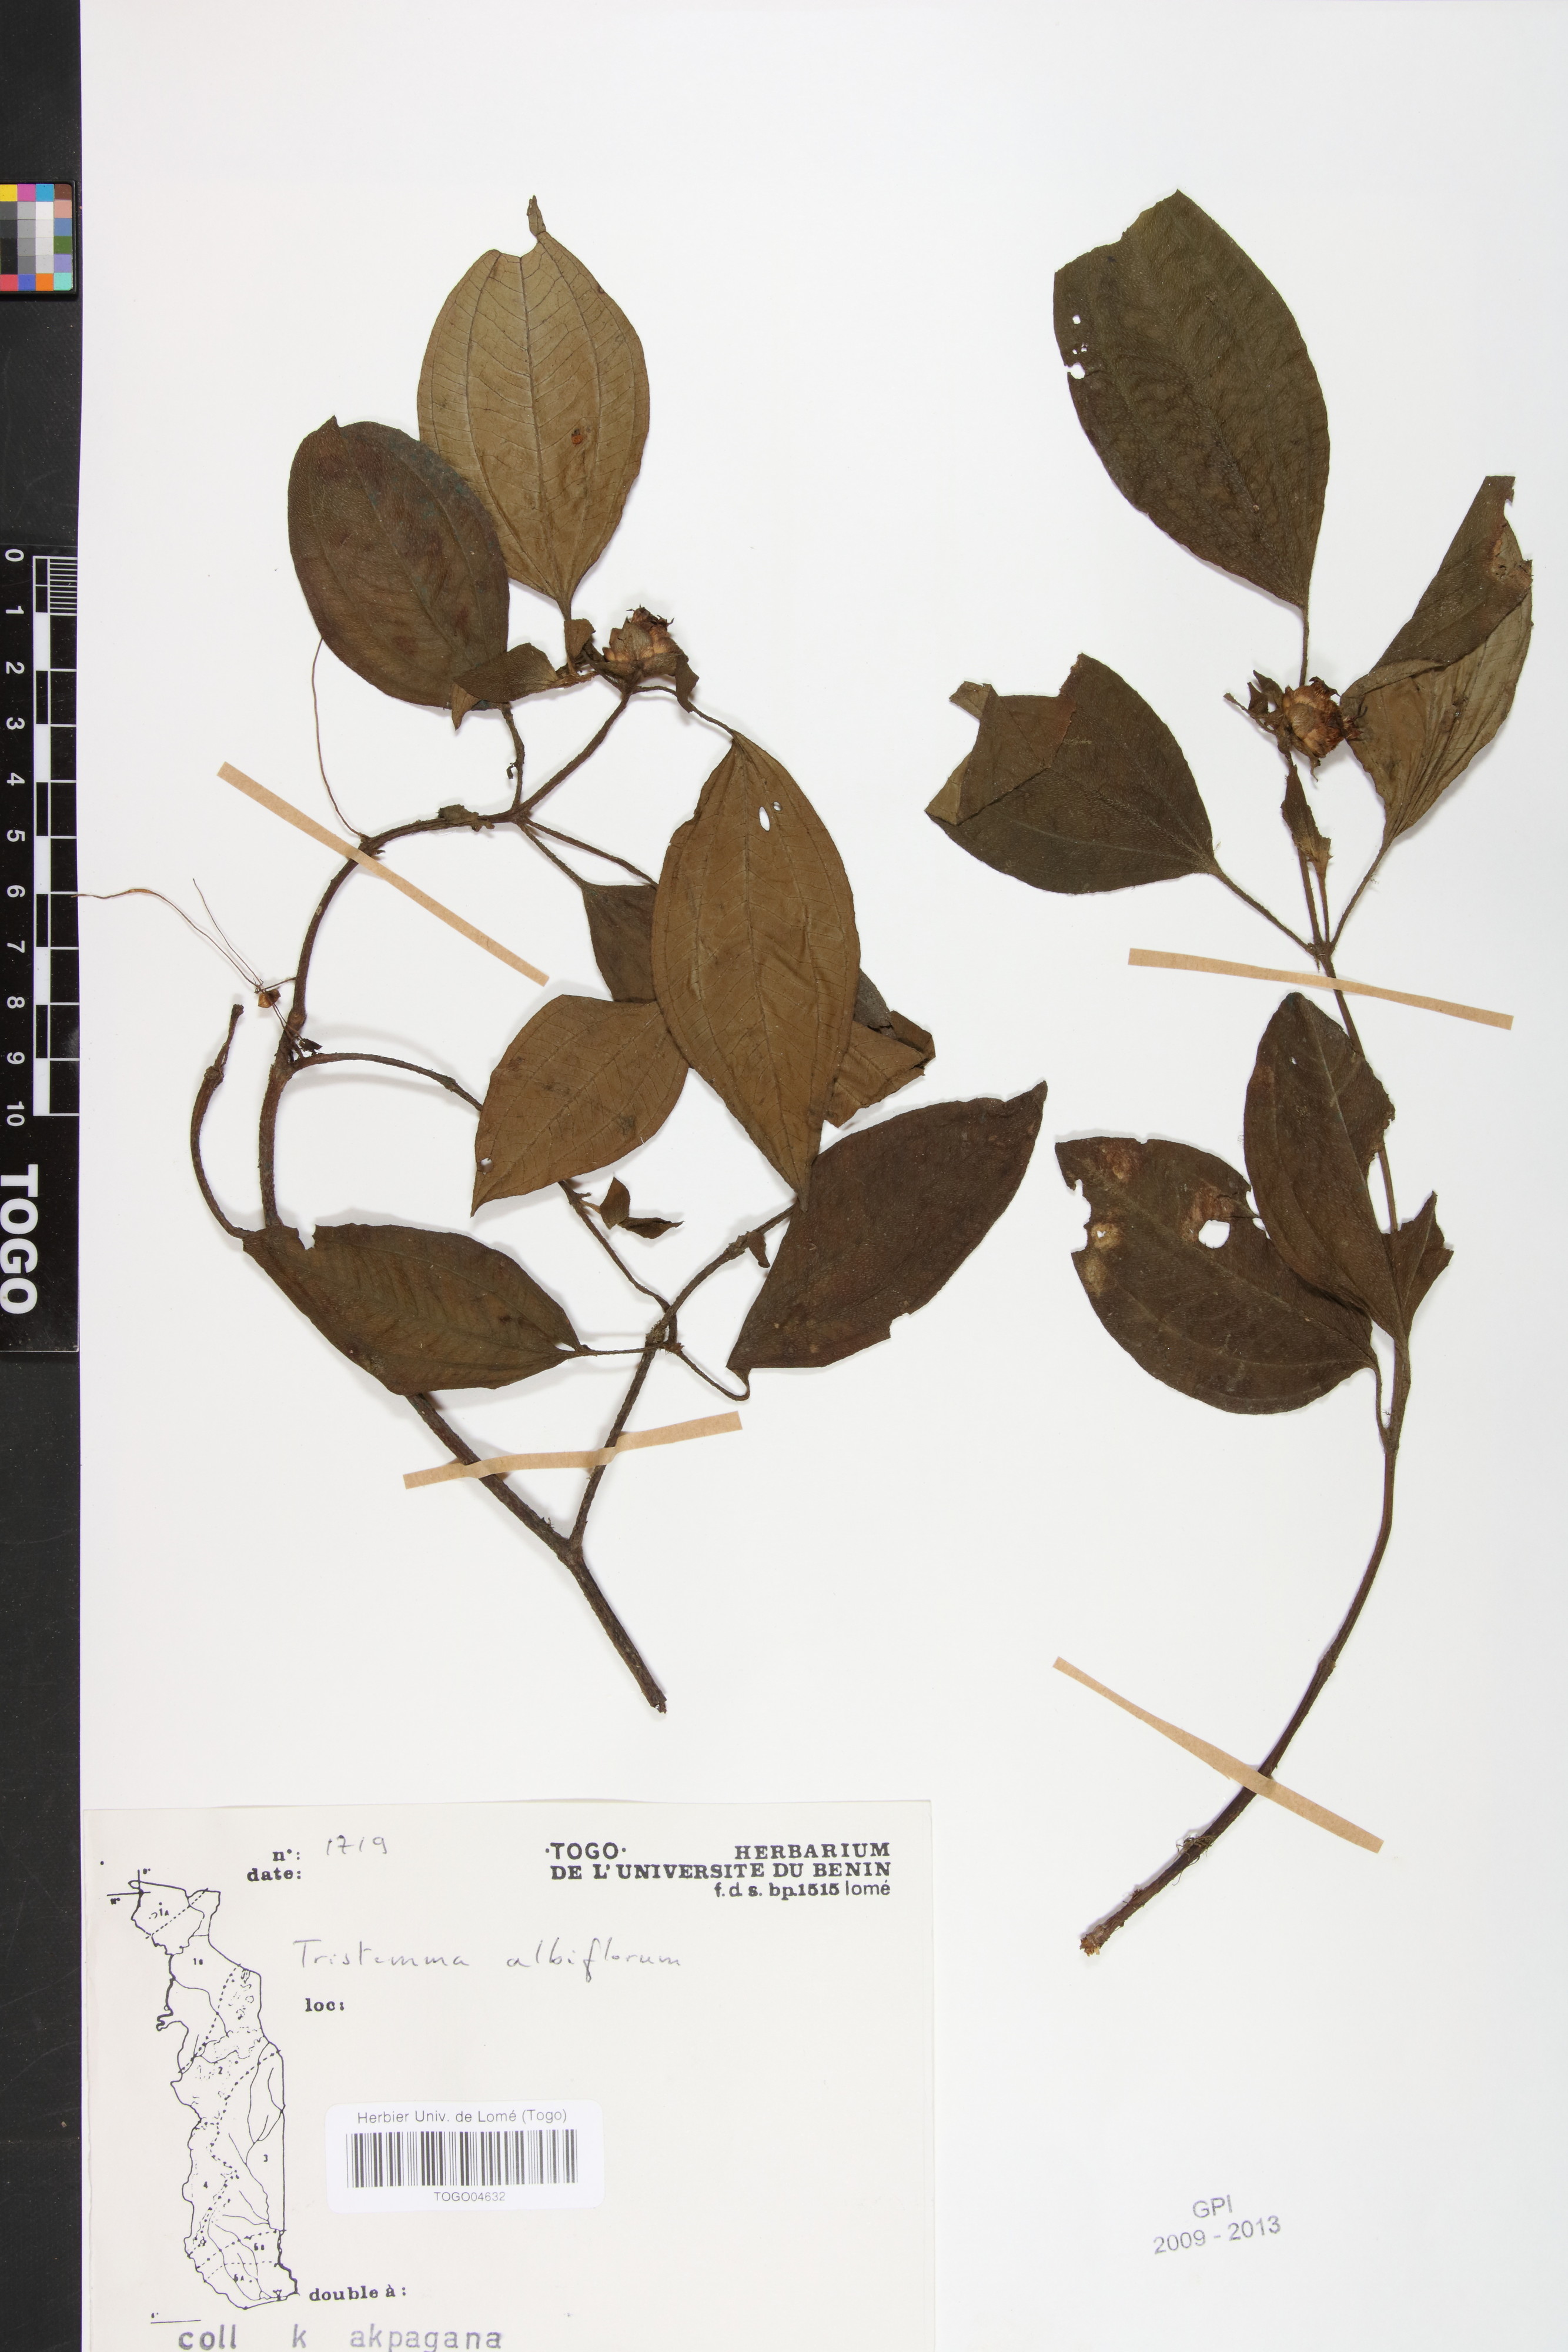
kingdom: Plantae
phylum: Tracheophyta
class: Magnoliopsida
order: Myrtales
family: Melastomataceae
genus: Tristemma
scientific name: Tristemma albiflorum
